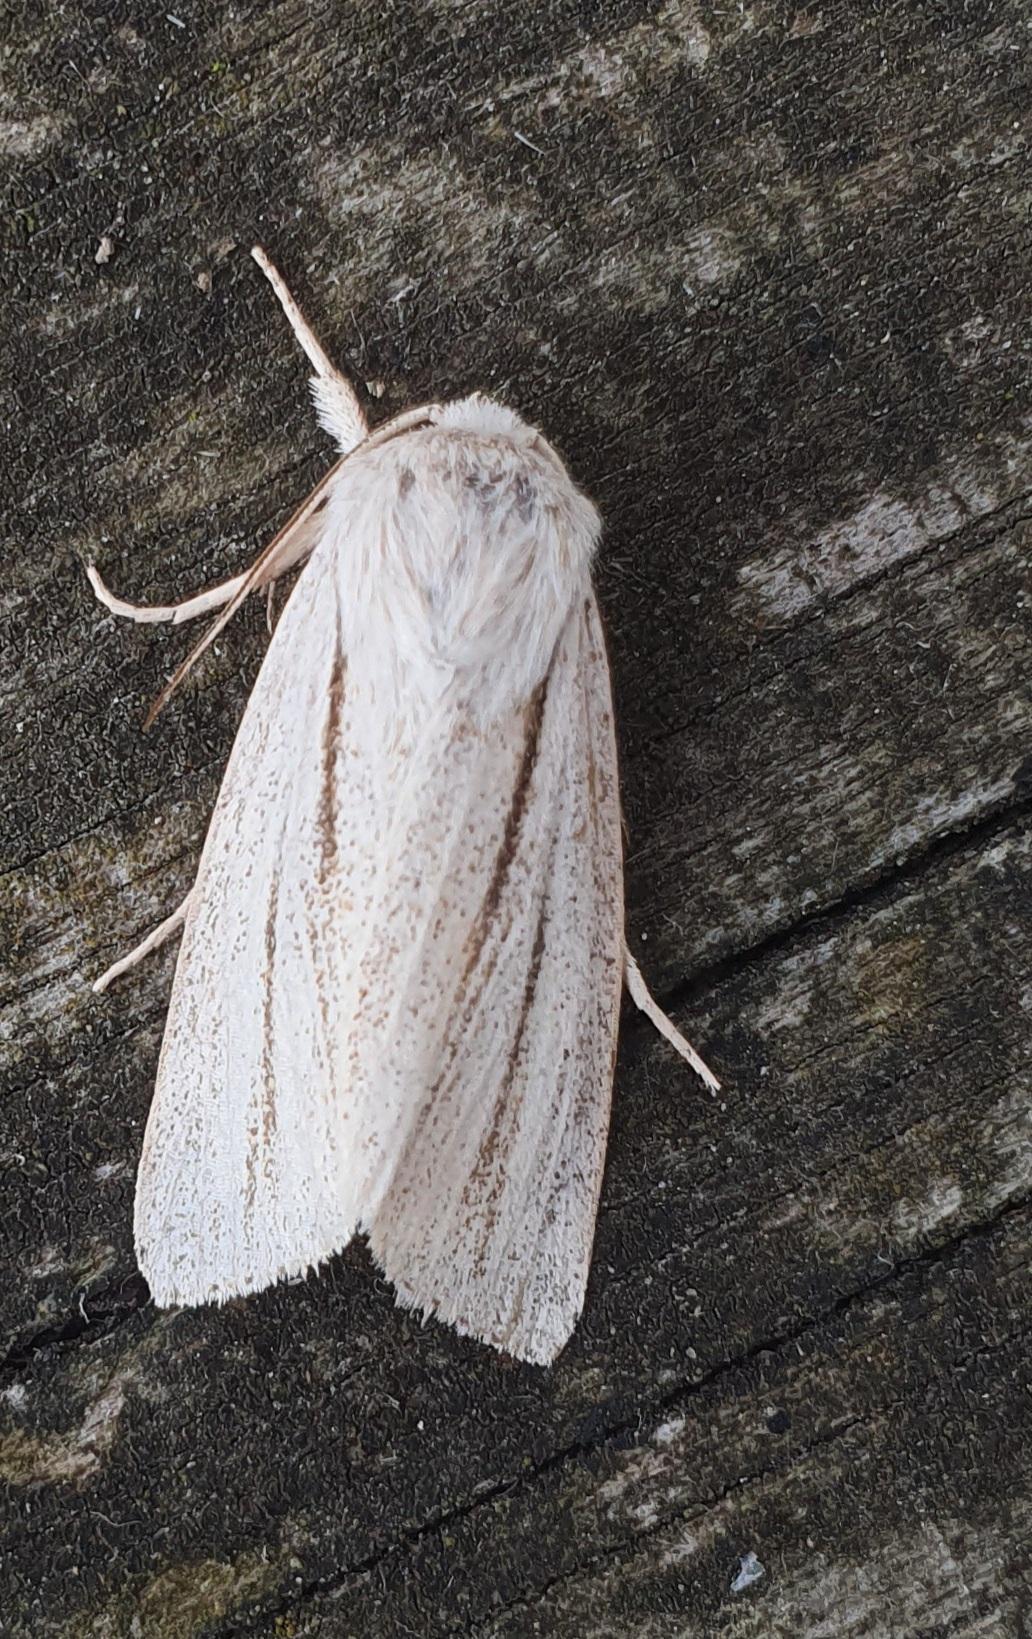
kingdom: Animalia
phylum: Arthropoda
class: Insecta
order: Lepidoptera
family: Noctuidae
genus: Simyra
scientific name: Simyra albovenosa
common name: Hvidstrenget-pelsugle
